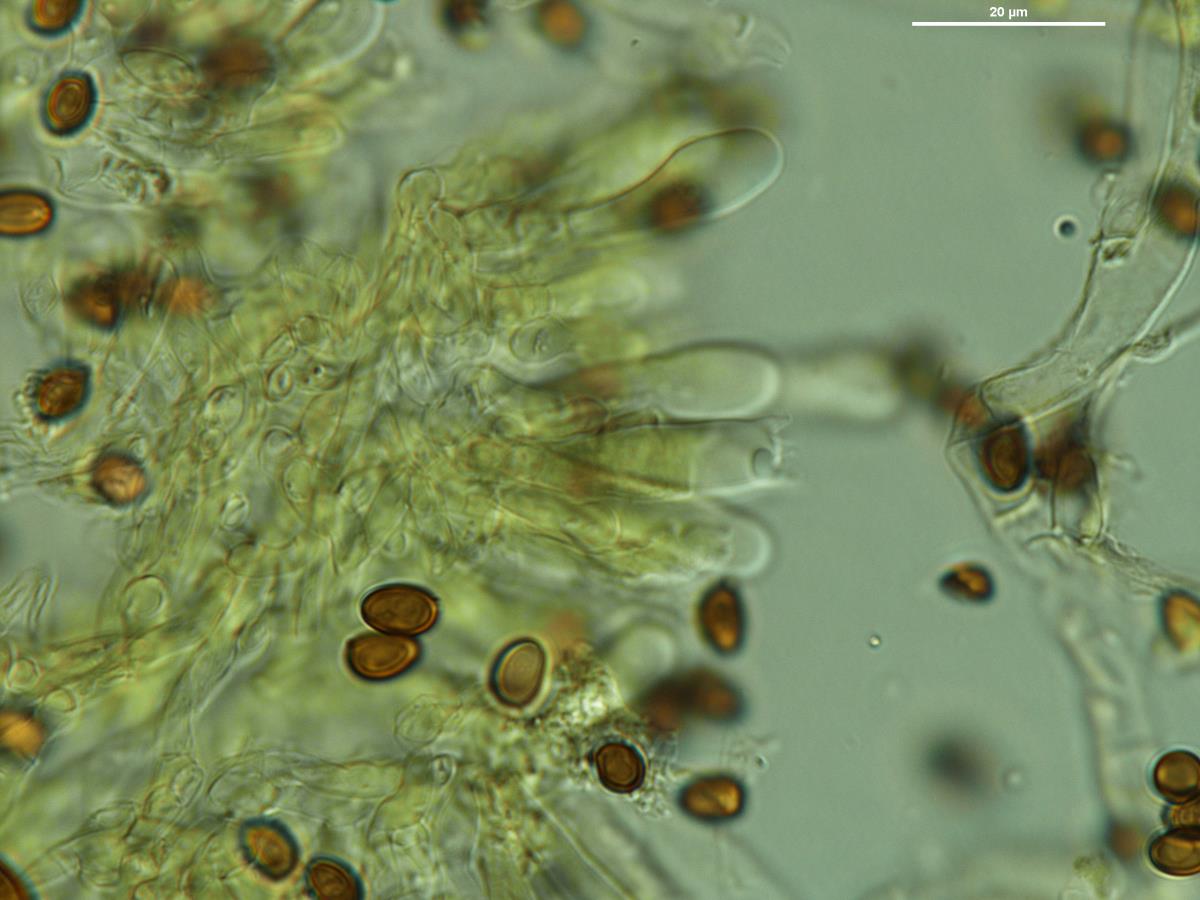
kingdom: Fungi
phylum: Basidiomycota
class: Agaricomycetes
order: Agaricales
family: Agaricaceae
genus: Agaricus
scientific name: Agaricus
